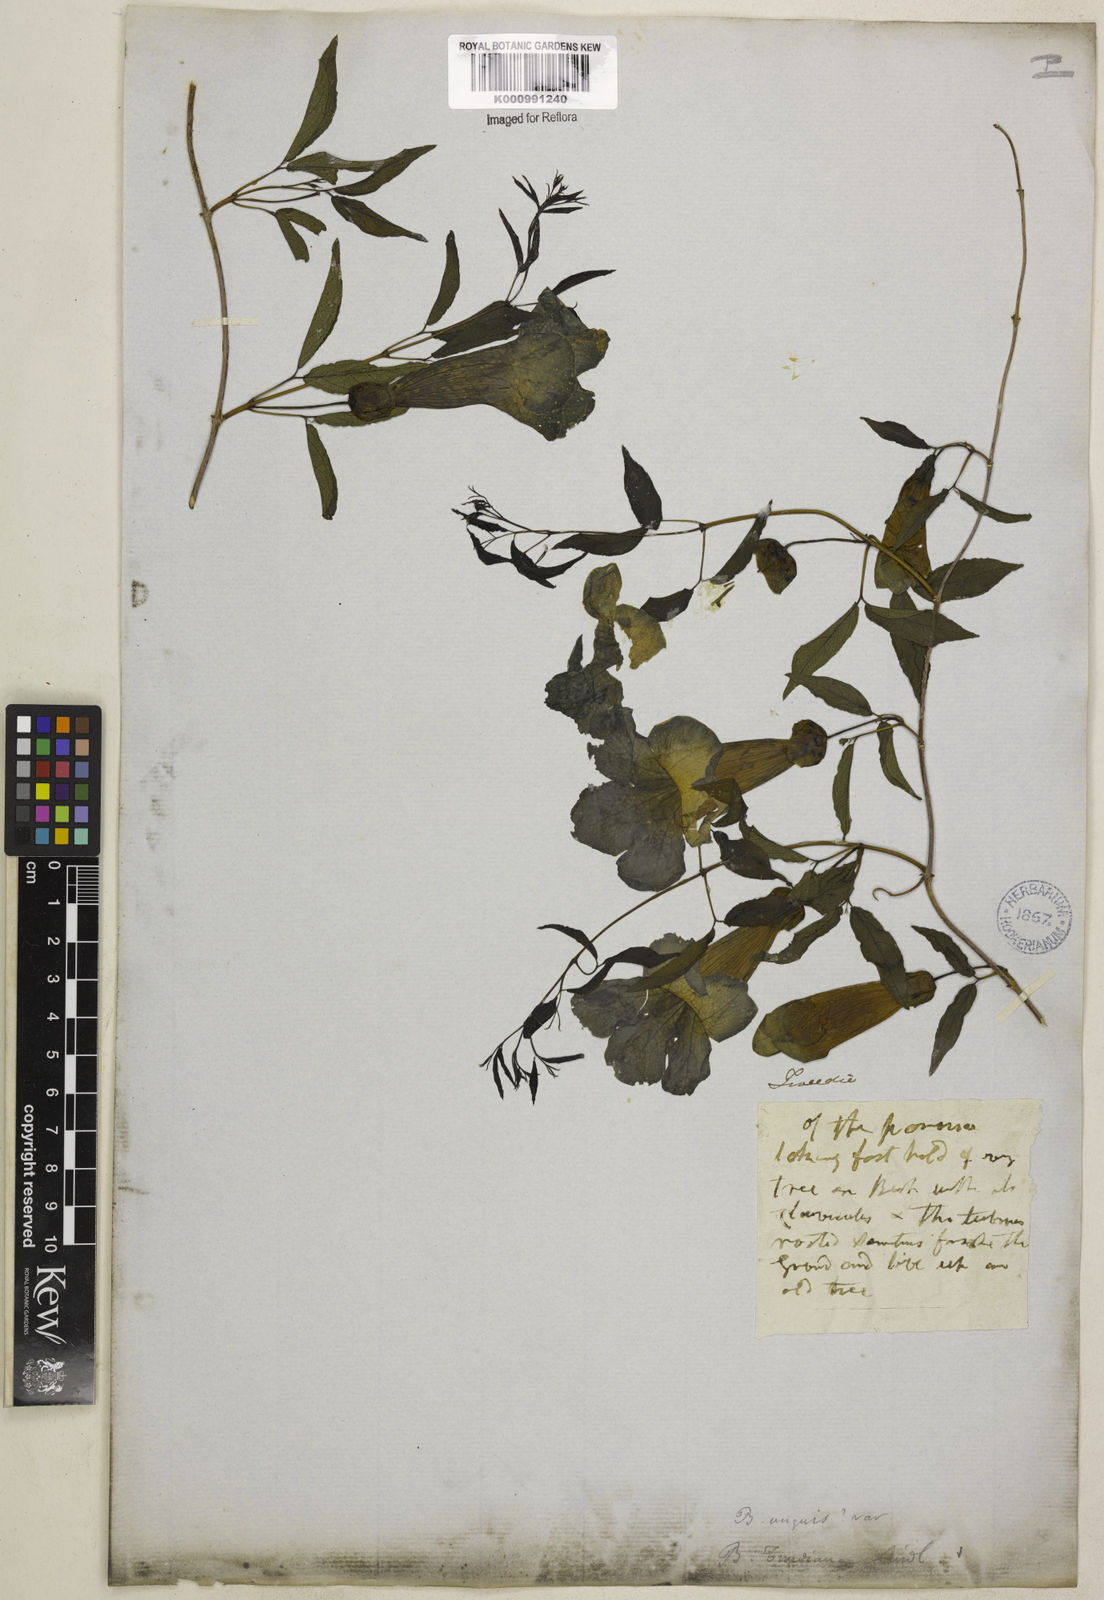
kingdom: Plantae
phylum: Tracheophyta
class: Magnoliopsida
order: Lamiales
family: Bignoniaceae
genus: Dolichandra
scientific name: Dolichandra unguis-cati
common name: Catclaw vine
